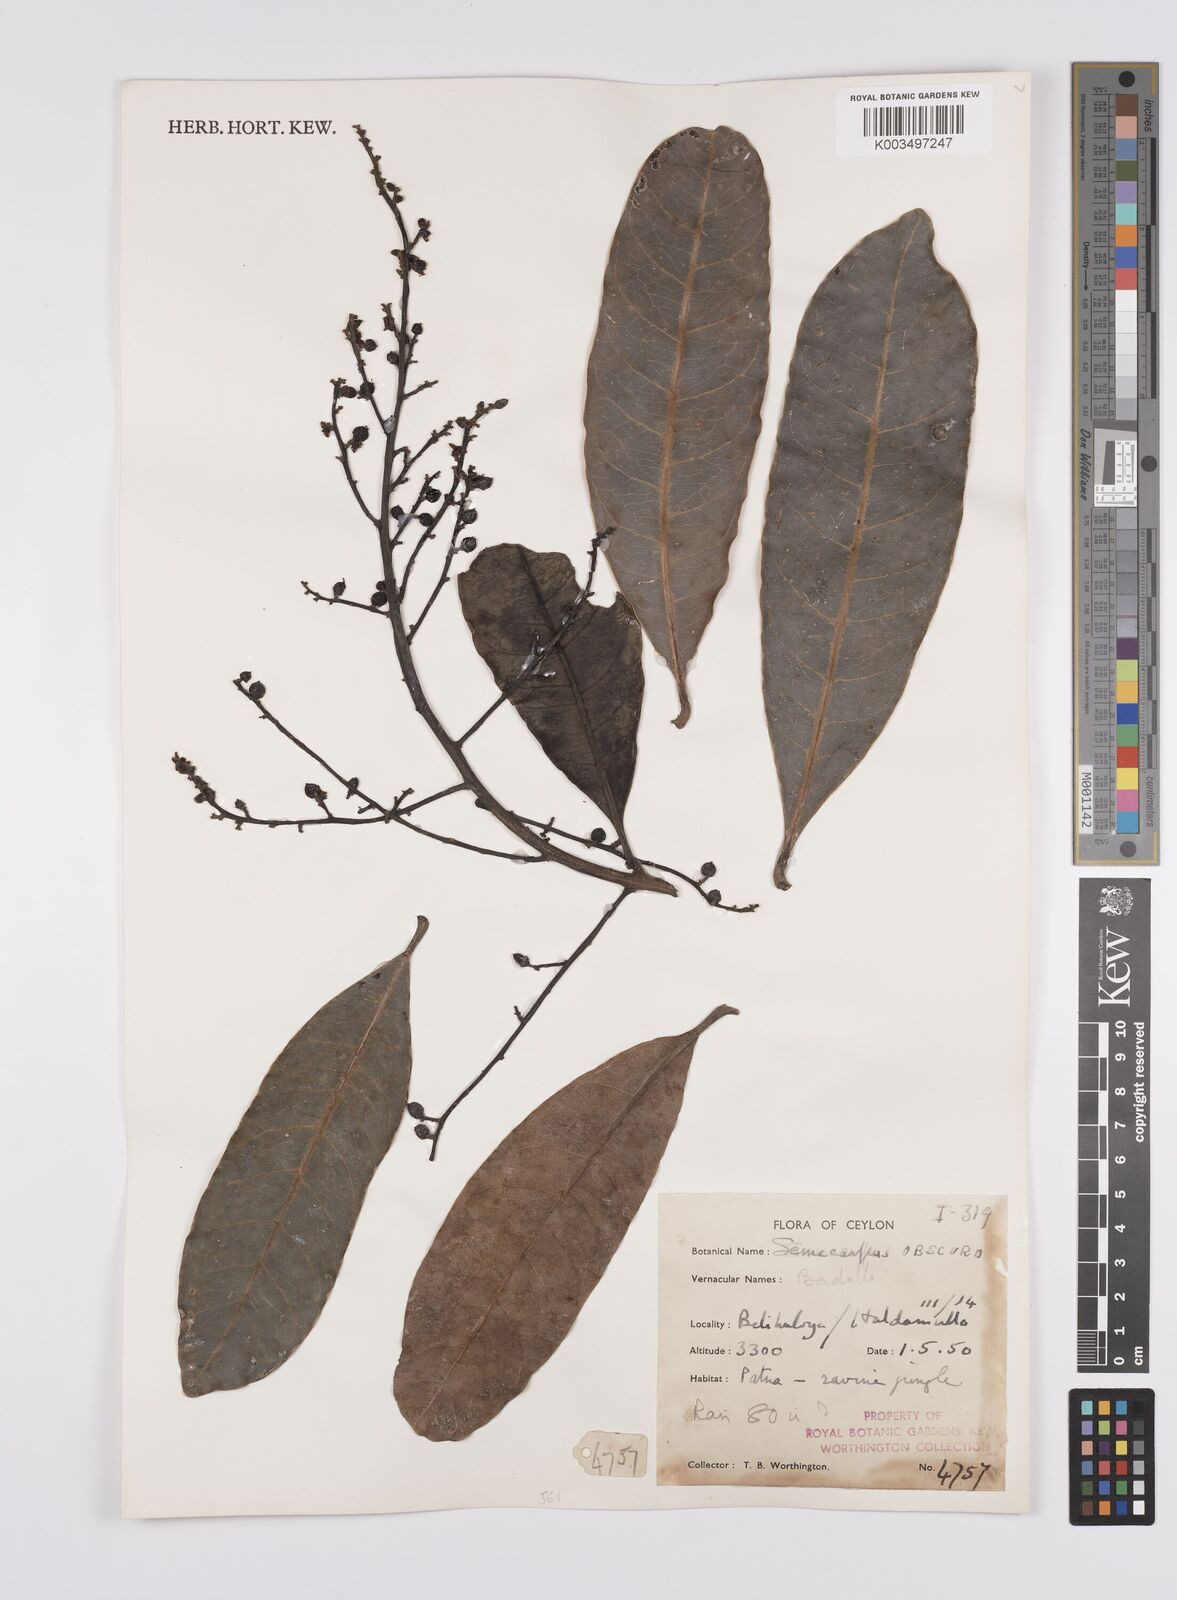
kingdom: Plantae
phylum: Tracheophyta
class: Magnoliopsida
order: Sapindales
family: Anacardiaceae
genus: Semecarpus
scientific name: Semecarpus walkeri
